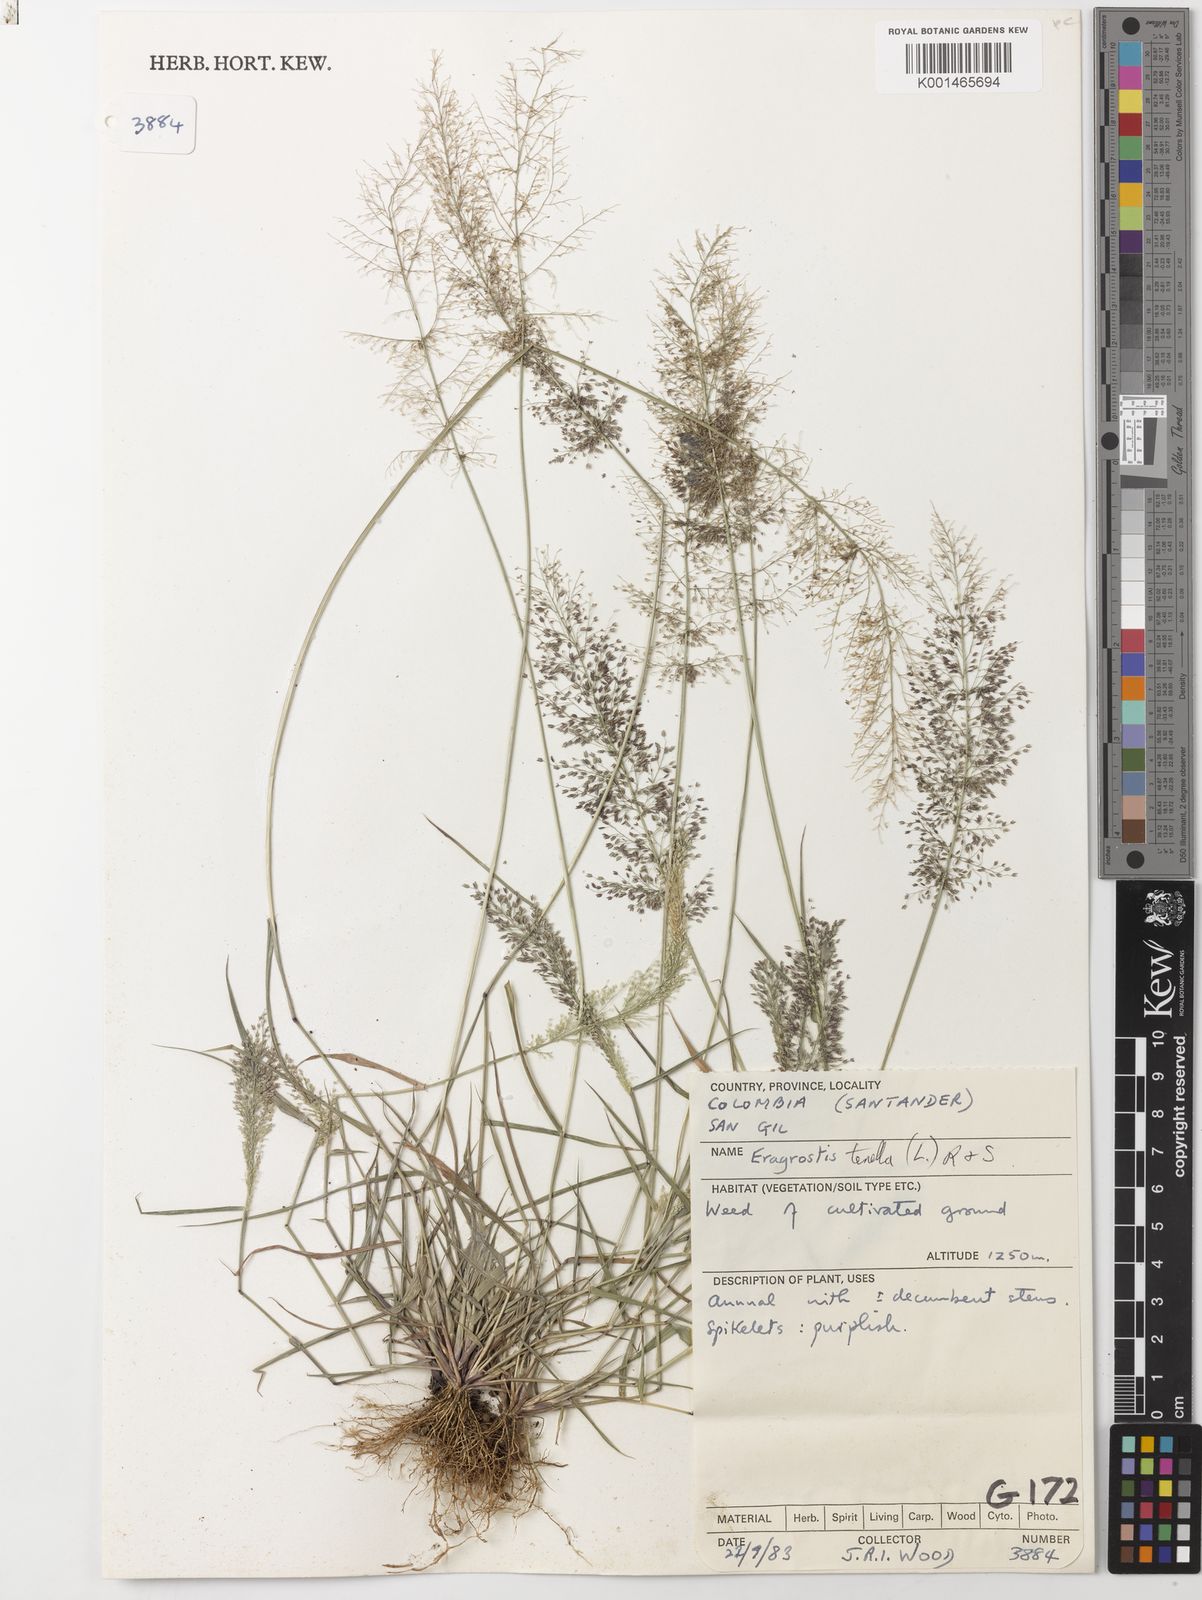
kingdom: Plantae
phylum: Tracheophyta
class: Liliopsida
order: Poales
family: Poaceae
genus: Eragrostis
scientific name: Eragrostis tenella
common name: Japanese lovegrass
